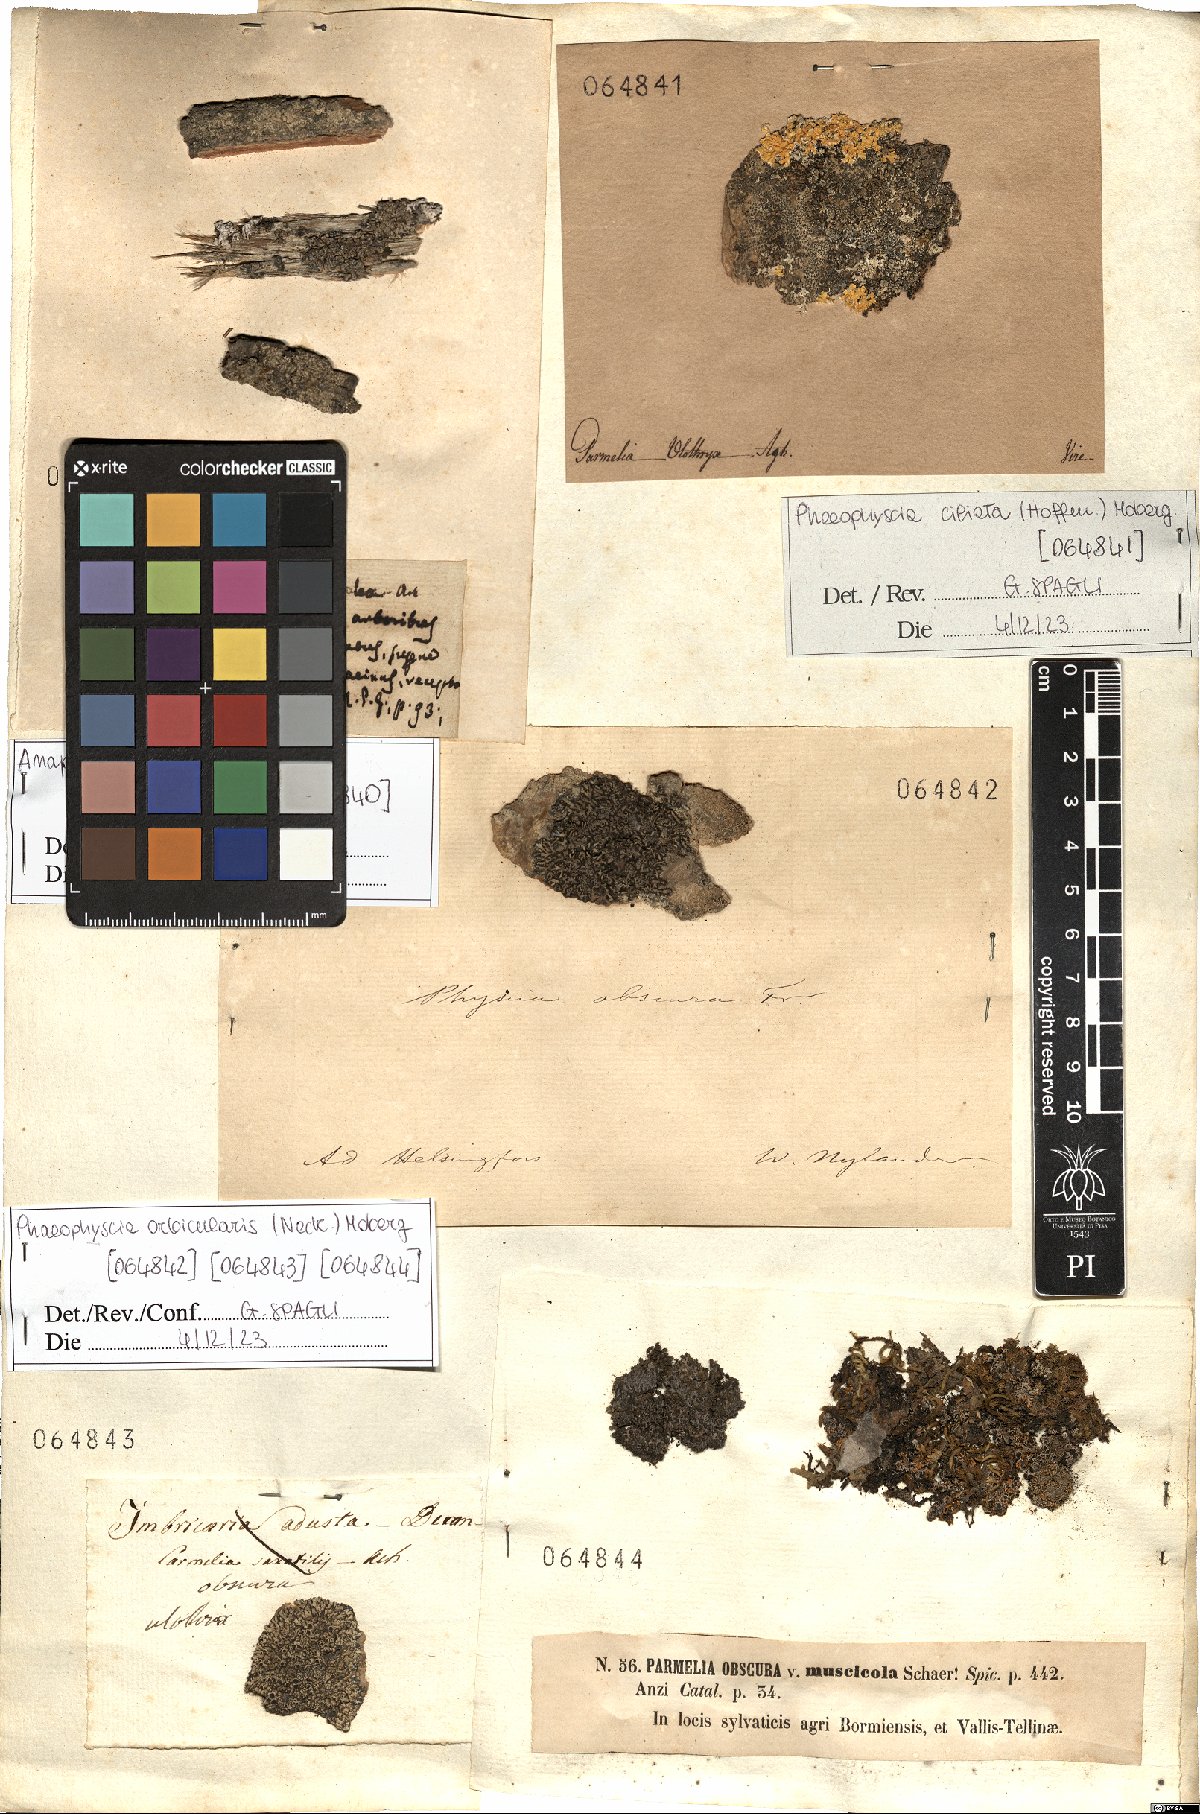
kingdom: Fungi
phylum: Ascomycota
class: Lecanoromycetes
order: Caliciales
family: Physciaceae
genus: Phaeophyscia
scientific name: Phaeophyscia orbicularis
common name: Mealy shadow lichen
